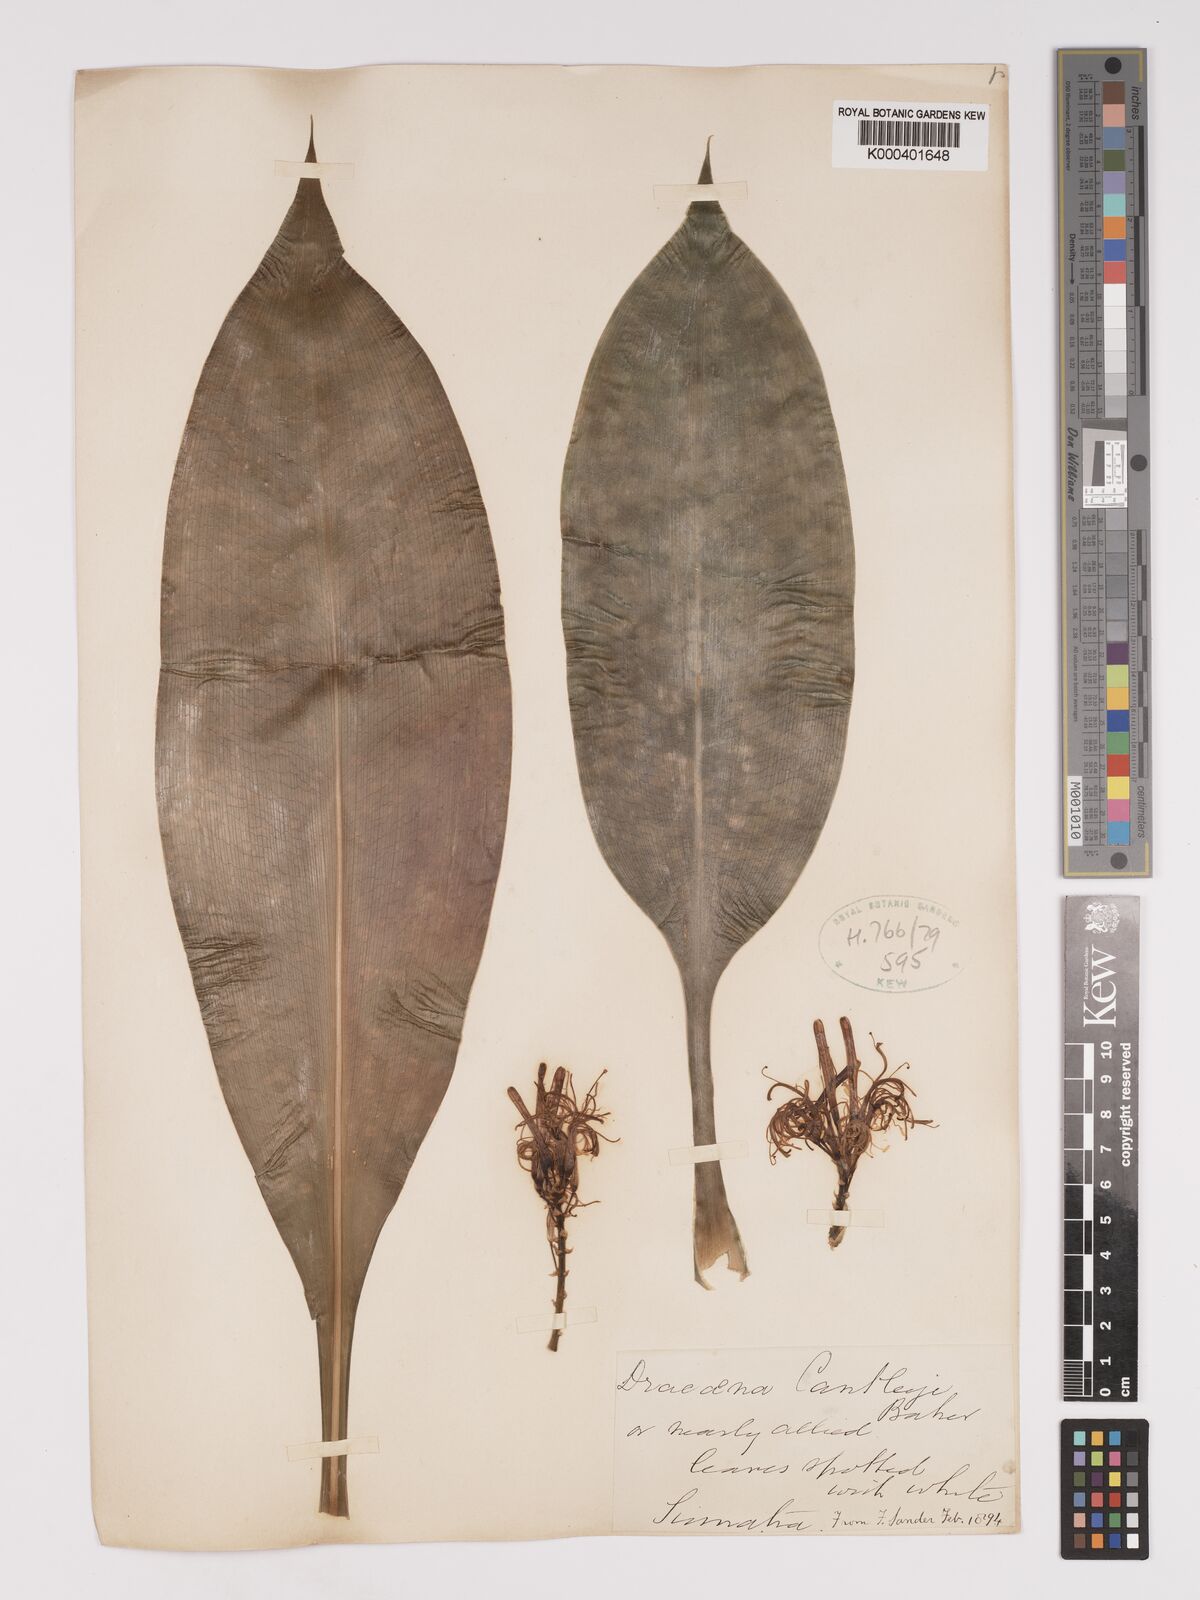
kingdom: Plantae
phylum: Tracheophyta
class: Liliopsida
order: Asparagales
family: Asparagaceae
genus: Dracaena
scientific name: Dracaena cantleyi
